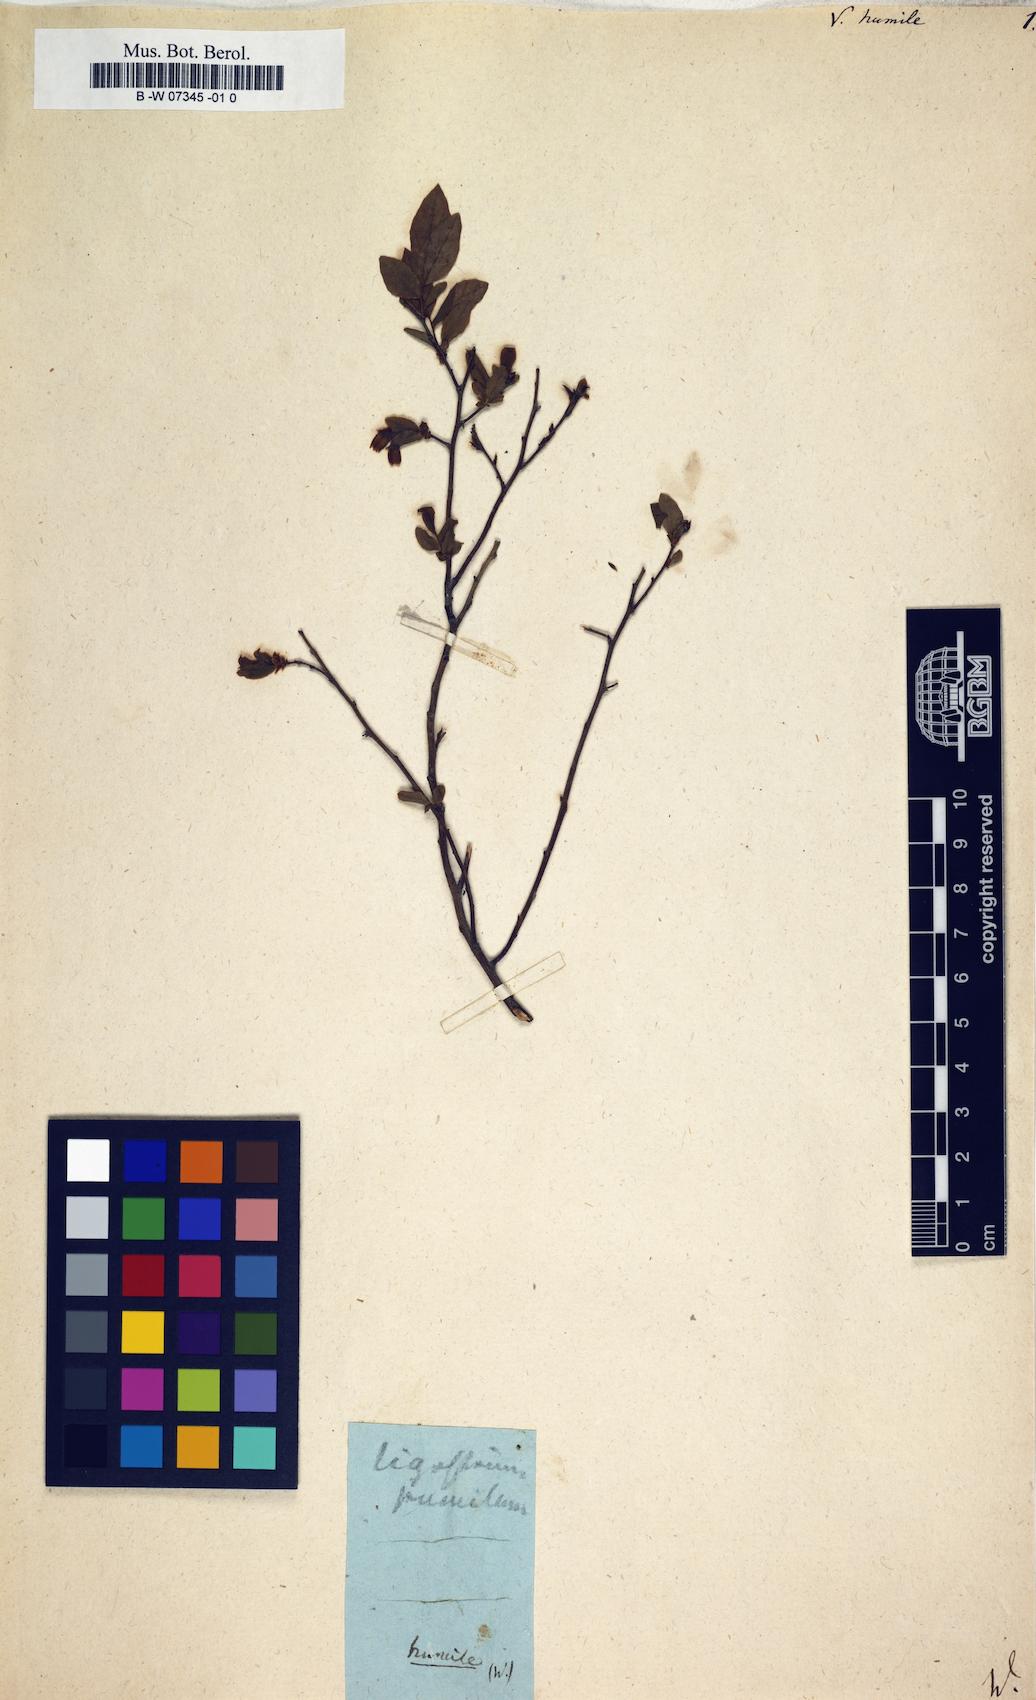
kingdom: Plantae
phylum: Tracheophyta
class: Magnoliopsida
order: Ericales
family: Ericaceae
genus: Vaccinium
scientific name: Vaccinium angustifolium
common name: Early lowbush blueberry
